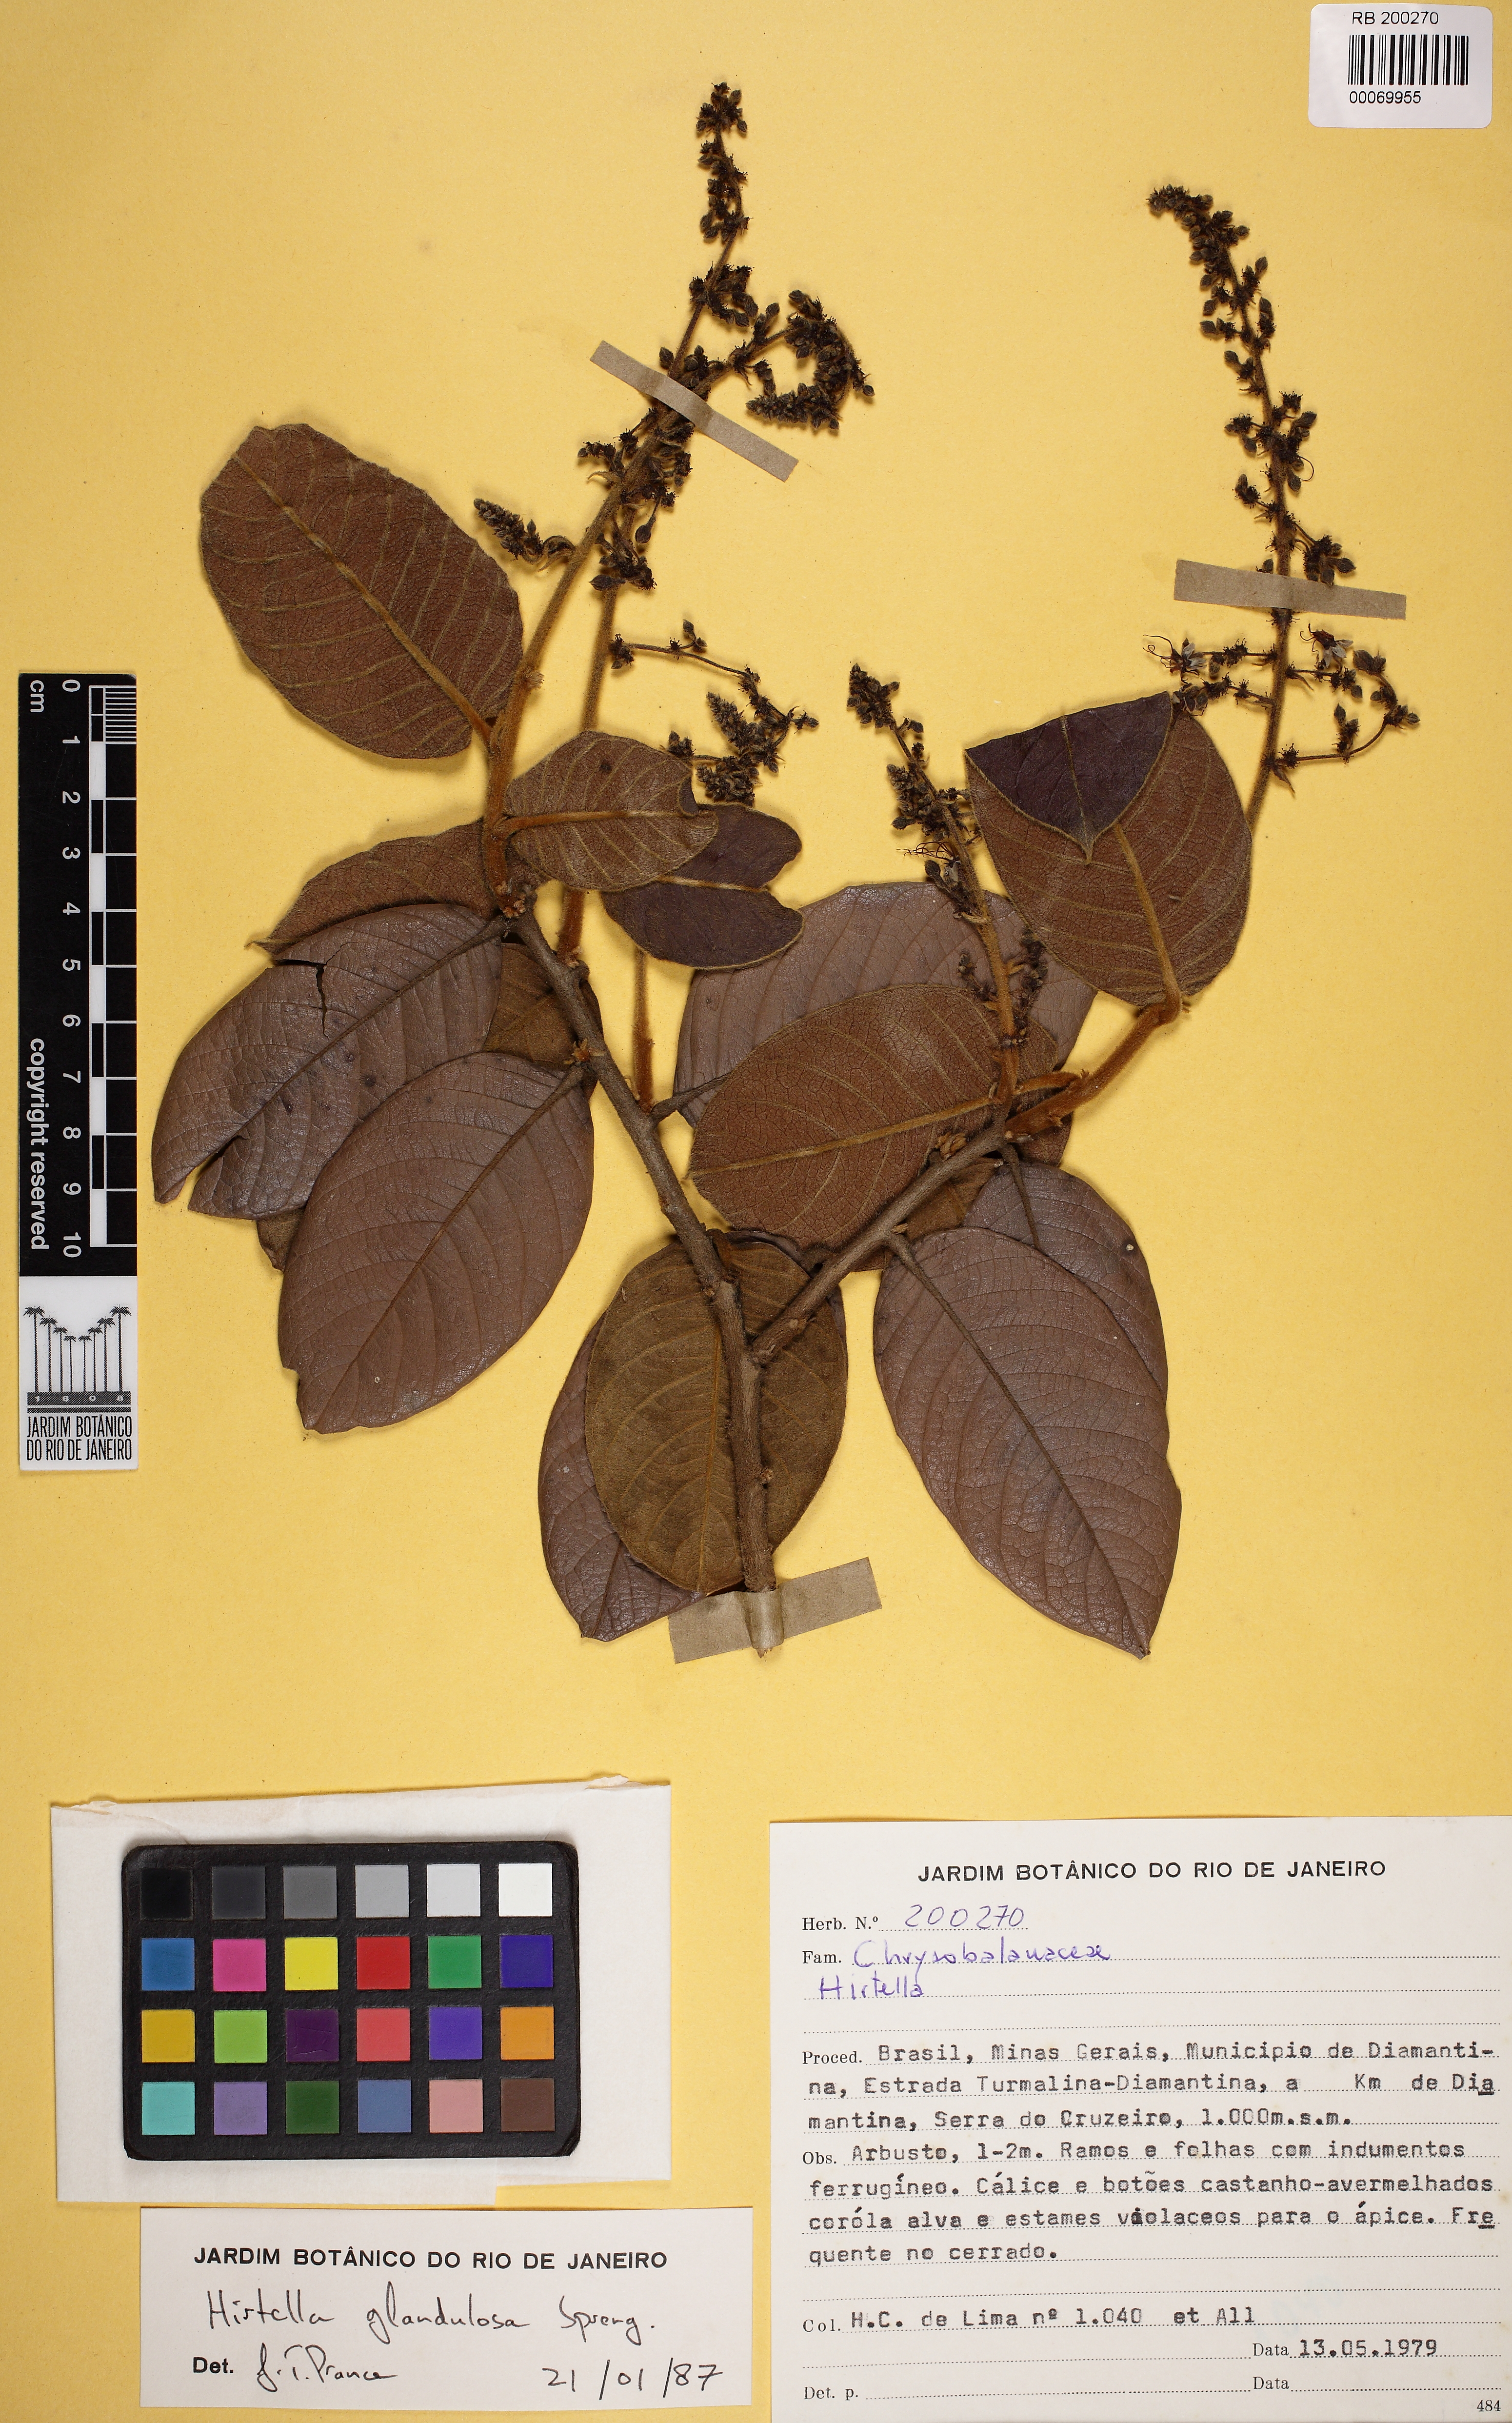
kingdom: Plantae
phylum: Tracheophyta
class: Magnoliopsida
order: Malpighiales
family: Chrysobalanaceae
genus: Hirtella
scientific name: Hirtella glandulosa
